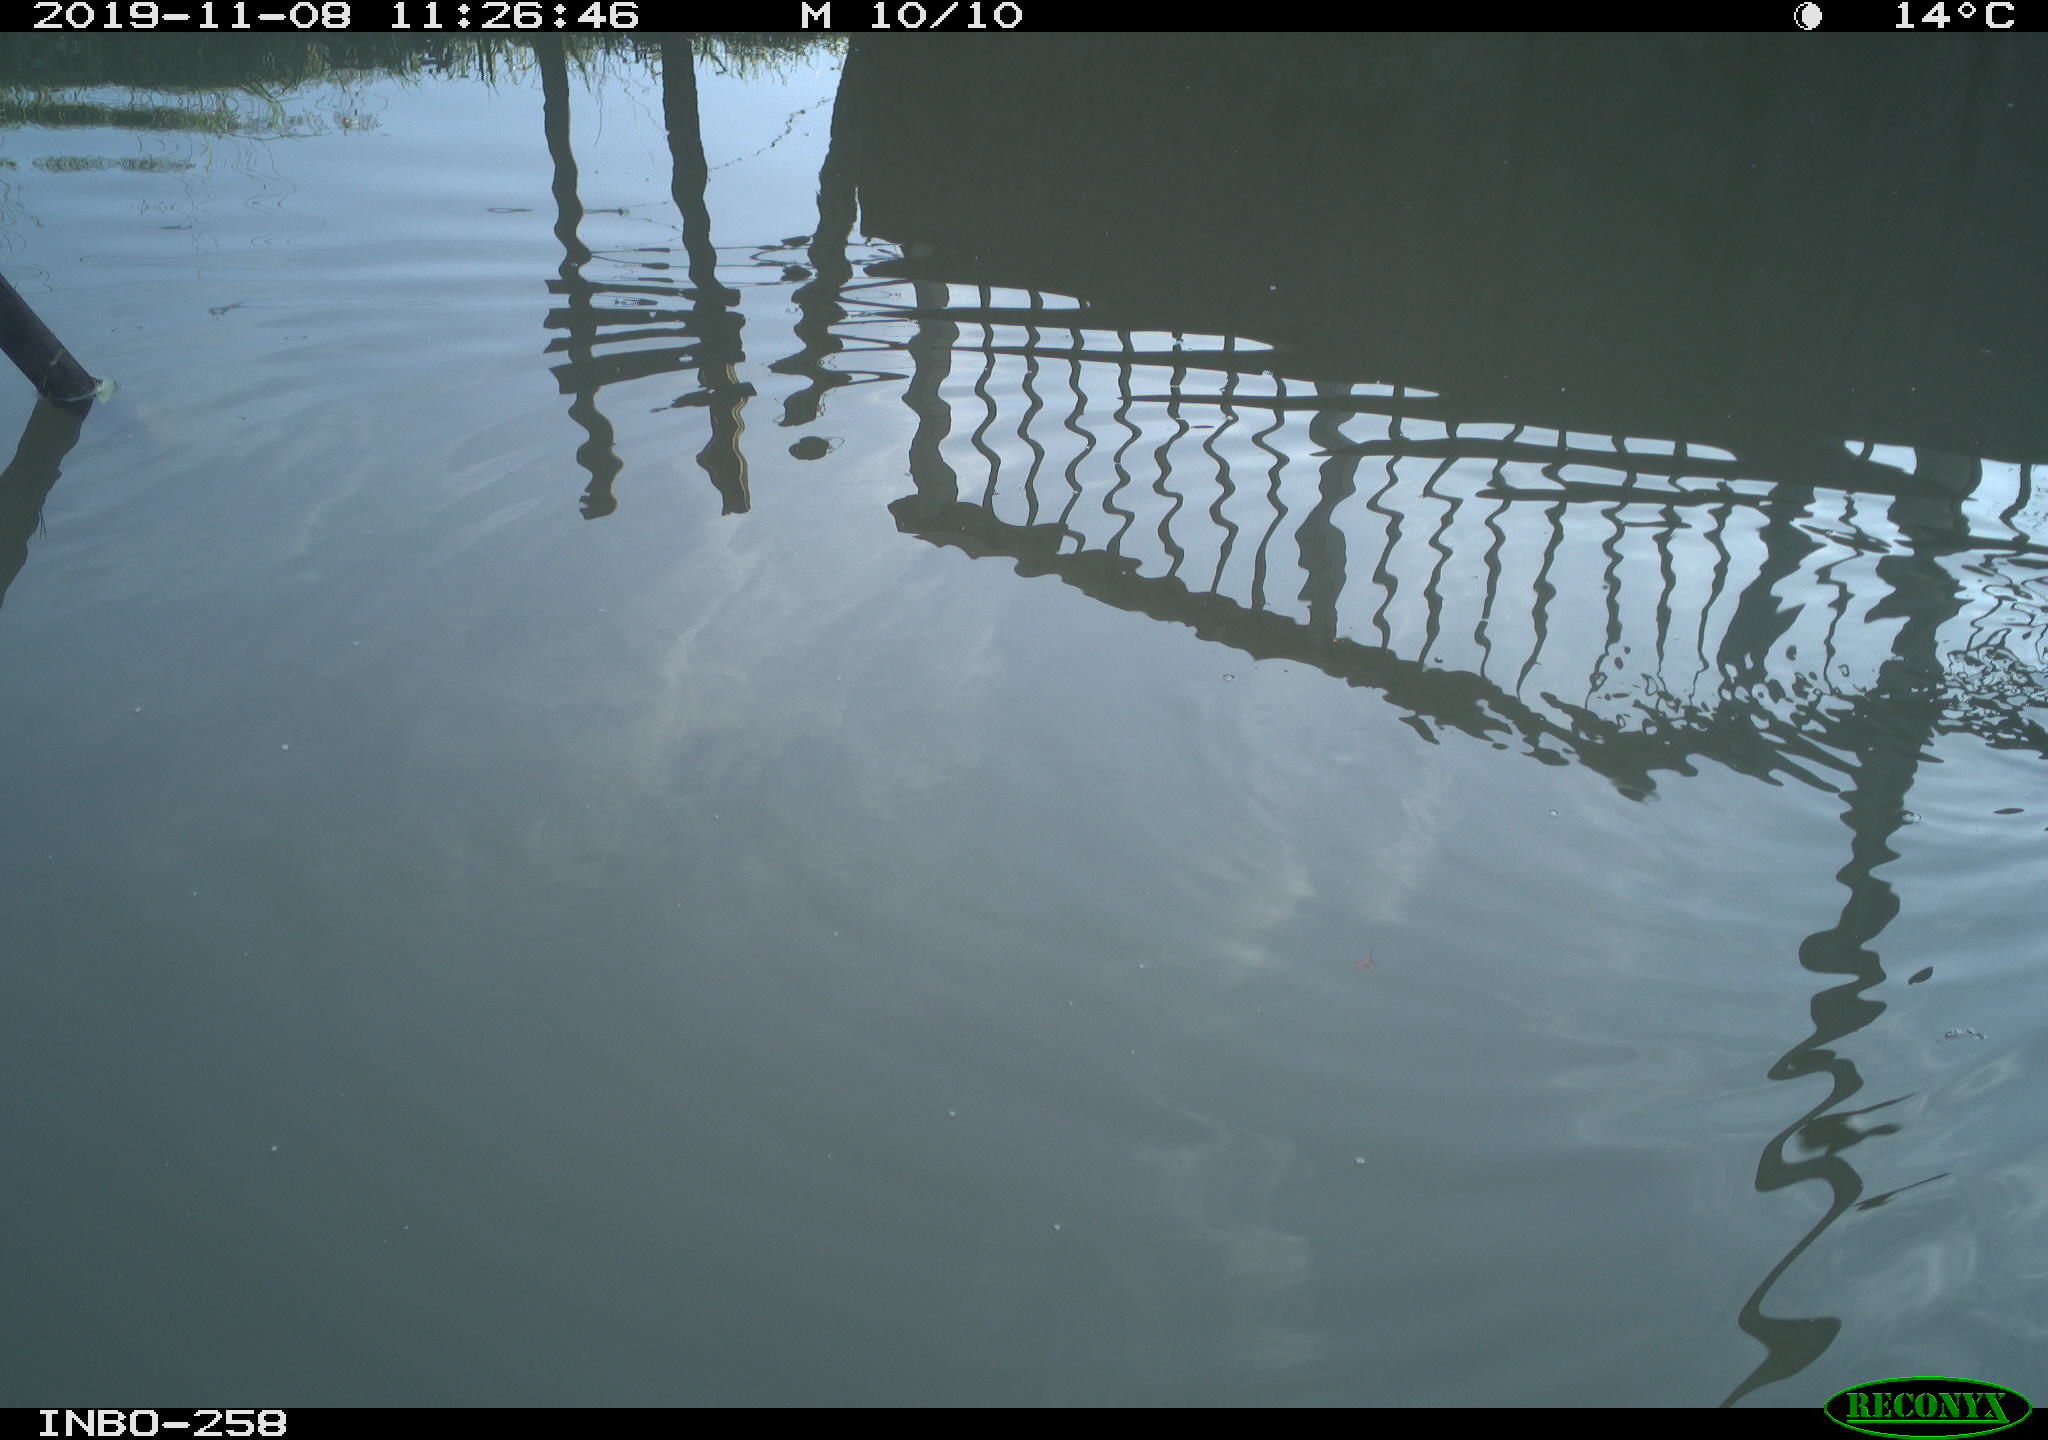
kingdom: Animalia
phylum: Chordata
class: Aves
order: Gruiformes
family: Rallidae
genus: Gallinula
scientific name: Gallinula chloropus
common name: Common moorhen
